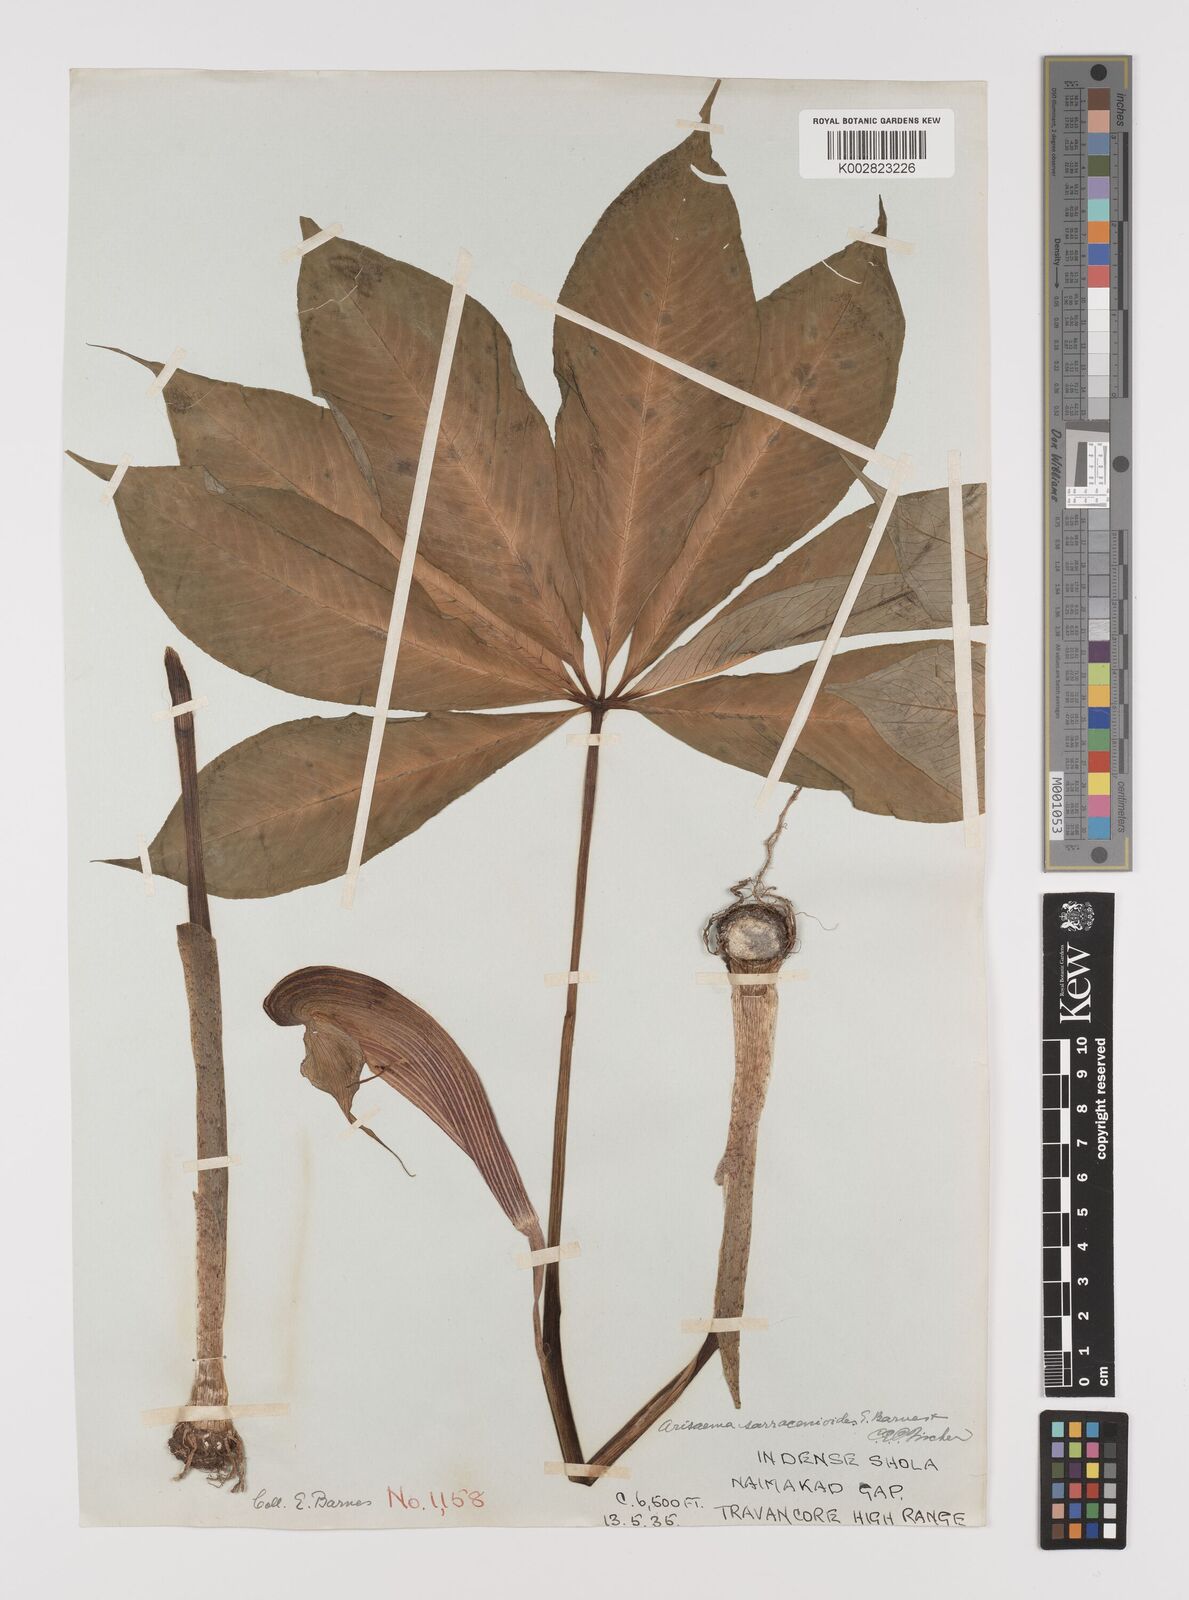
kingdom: Plantae
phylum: Tracheophyta
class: Liliopsida
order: Alismatales
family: Araceae
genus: Arisaema
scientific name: Arisaema sarracenioides
